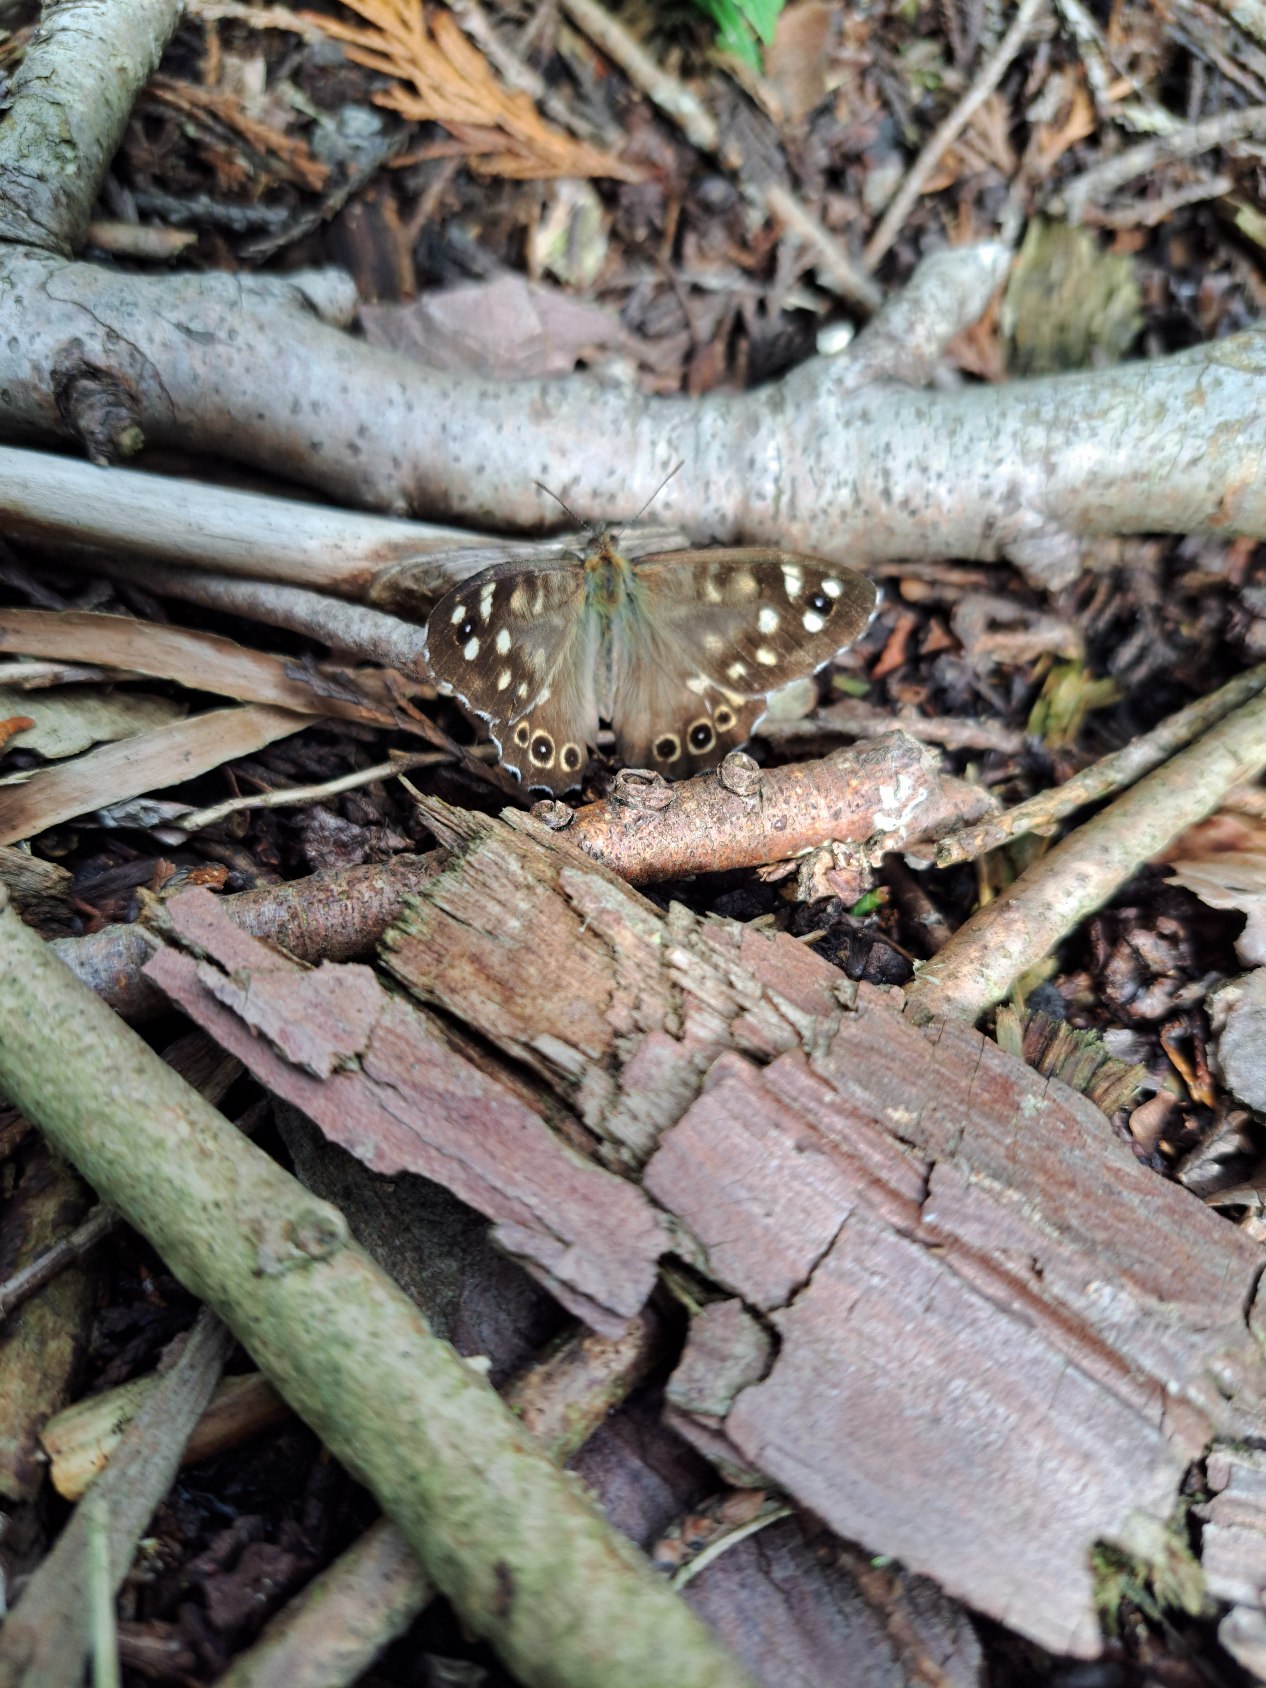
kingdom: Animalia
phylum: Arthropoda
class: Insecta
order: Lepidoptera
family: Nymphalidae
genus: Pararge
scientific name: Pararge aegeria
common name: Skovrandøje
